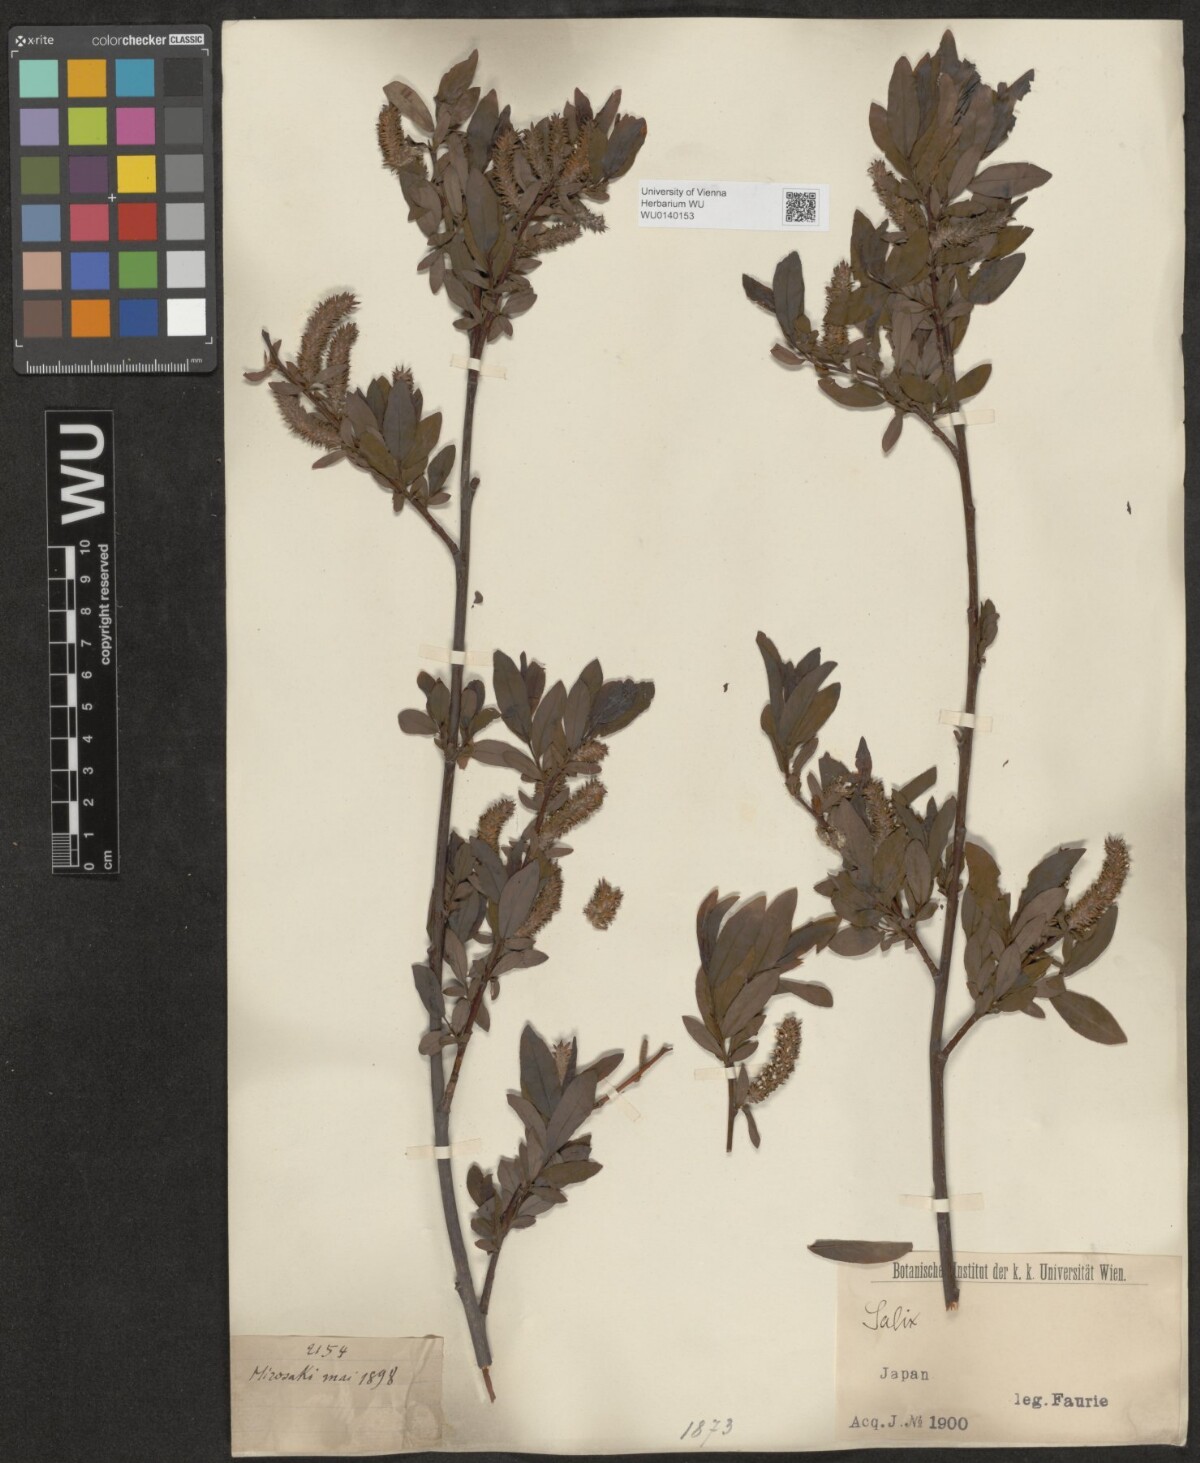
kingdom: Plantae
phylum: Tracheophyta
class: Magnoliopsida
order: Malpighiales
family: Salicaceae
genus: Salix
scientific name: Salix
